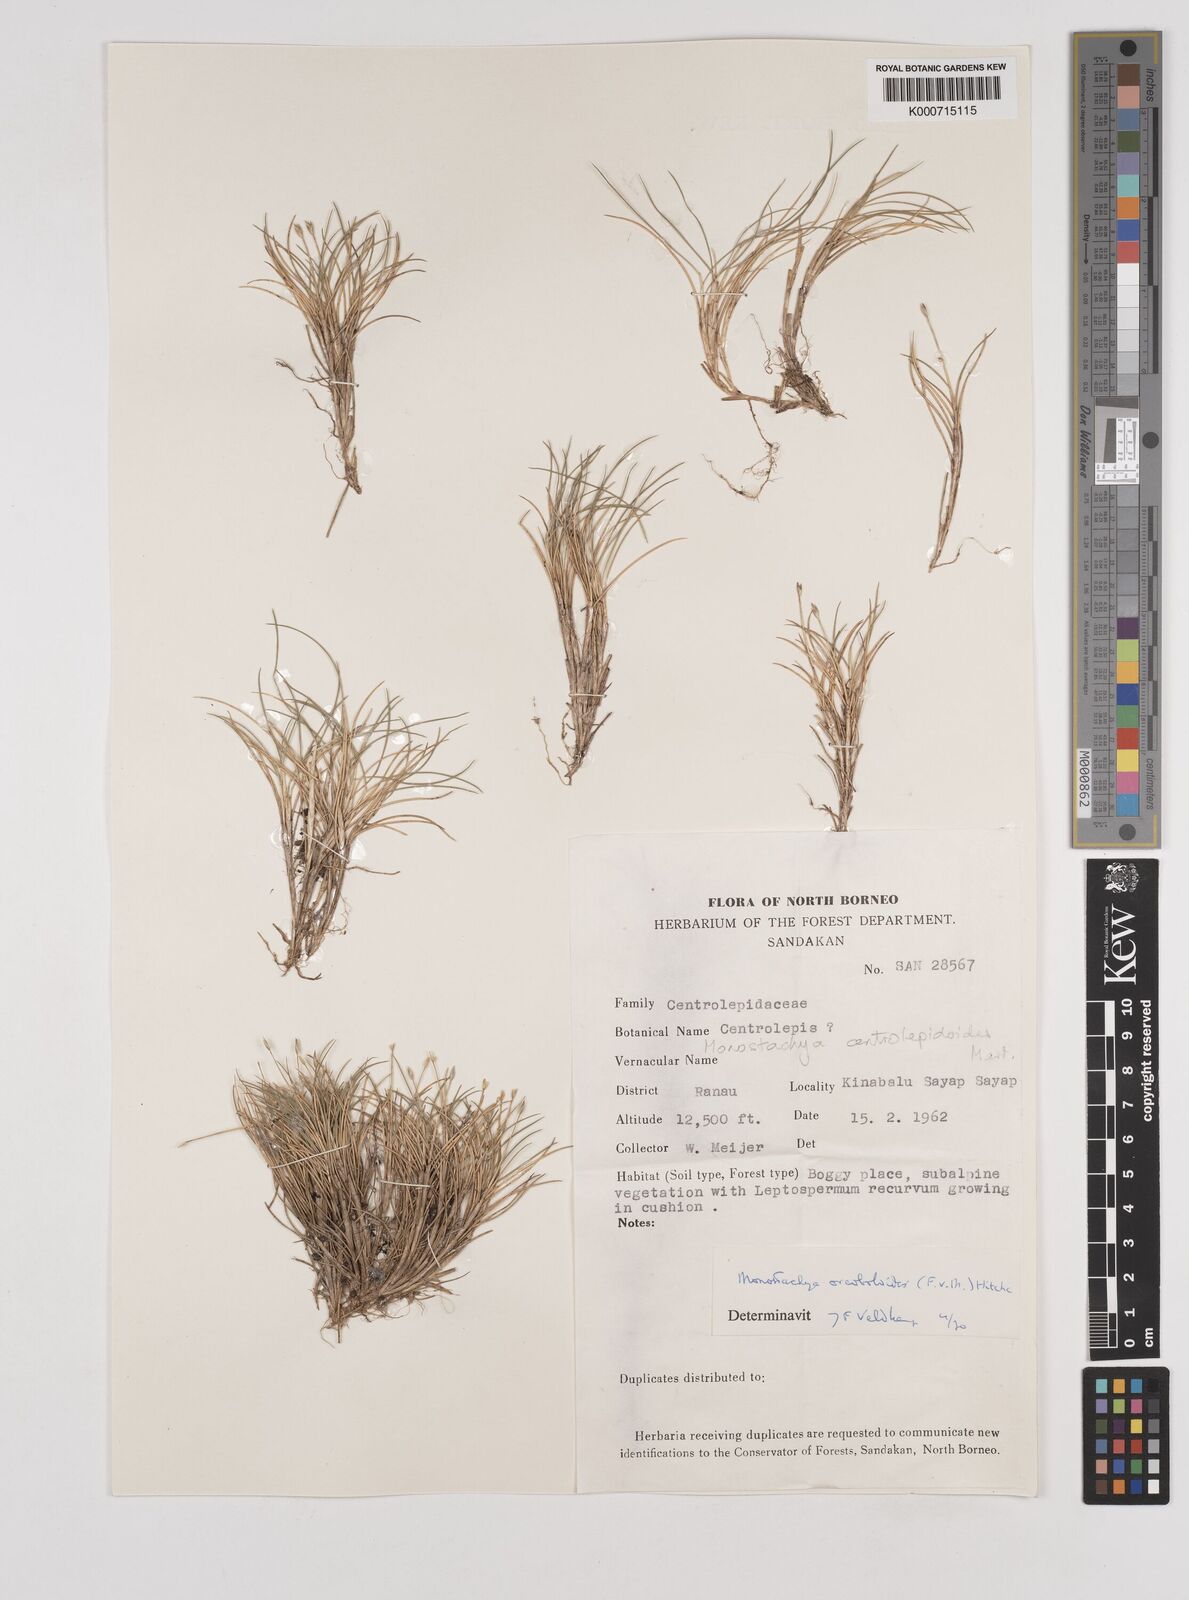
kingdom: Plantae
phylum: Tracheophyta
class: Liliopsida
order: Poales
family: Poaceae
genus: Rytidosperma
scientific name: Rytidosperma oreoboloides
